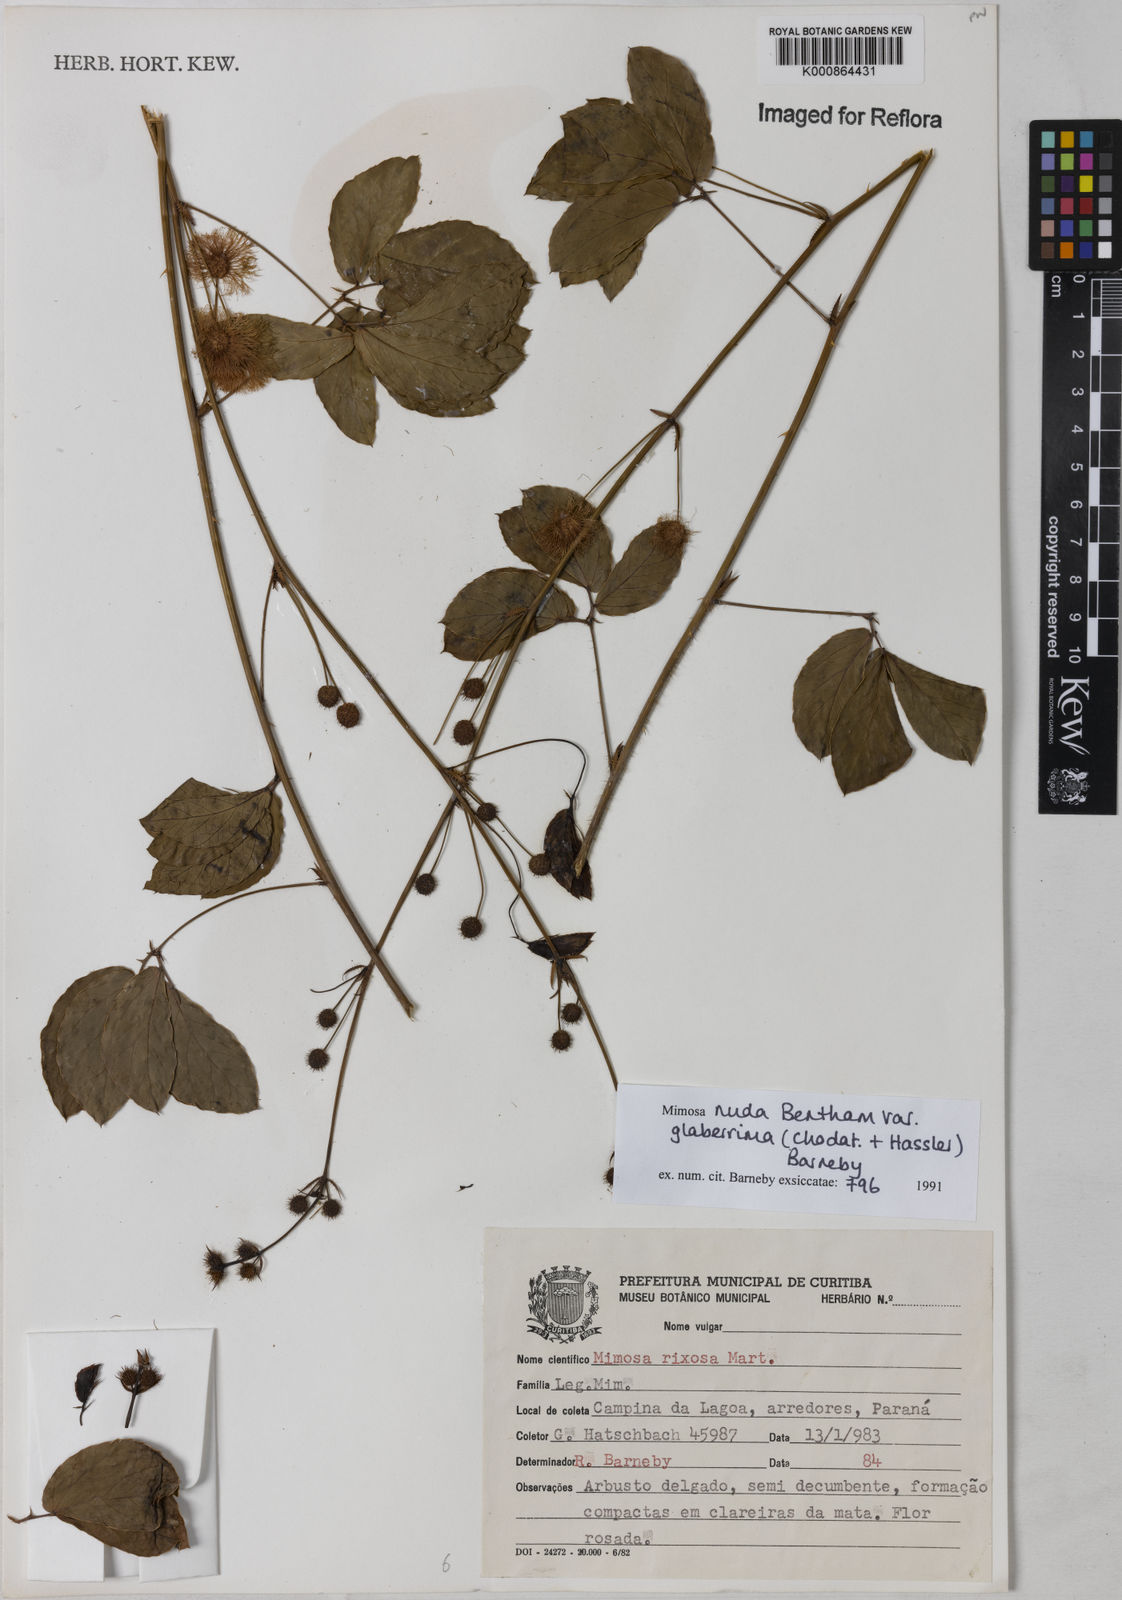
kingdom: Plantae
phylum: Tracheophyta
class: Magnoliopsida
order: Fabales
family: Fabaceae
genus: Mimosa
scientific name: Mimosa debilis
